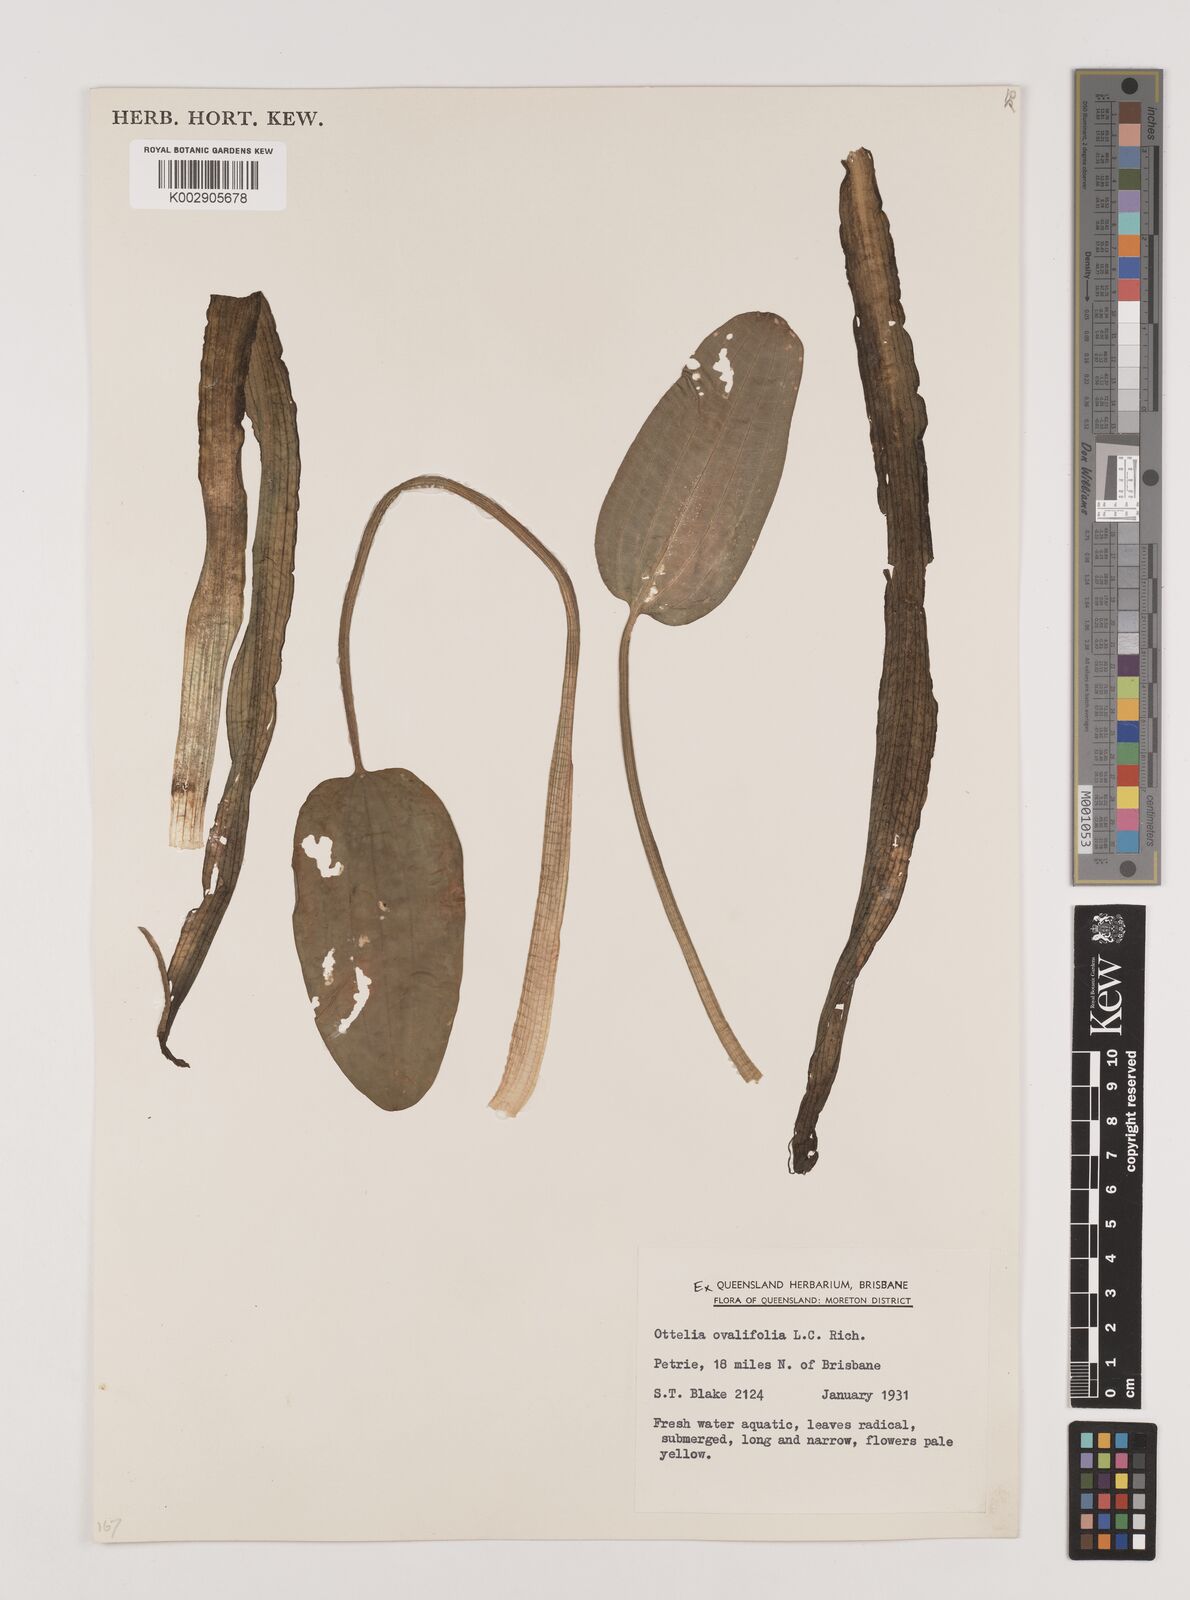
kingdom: Plantae
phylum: Tracheophyta
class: Liliopsida
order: Alismatales
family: Hydrocharitaceae
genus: Ottelia
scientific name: Ottelia ovalifolia
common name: Swamp-lily
